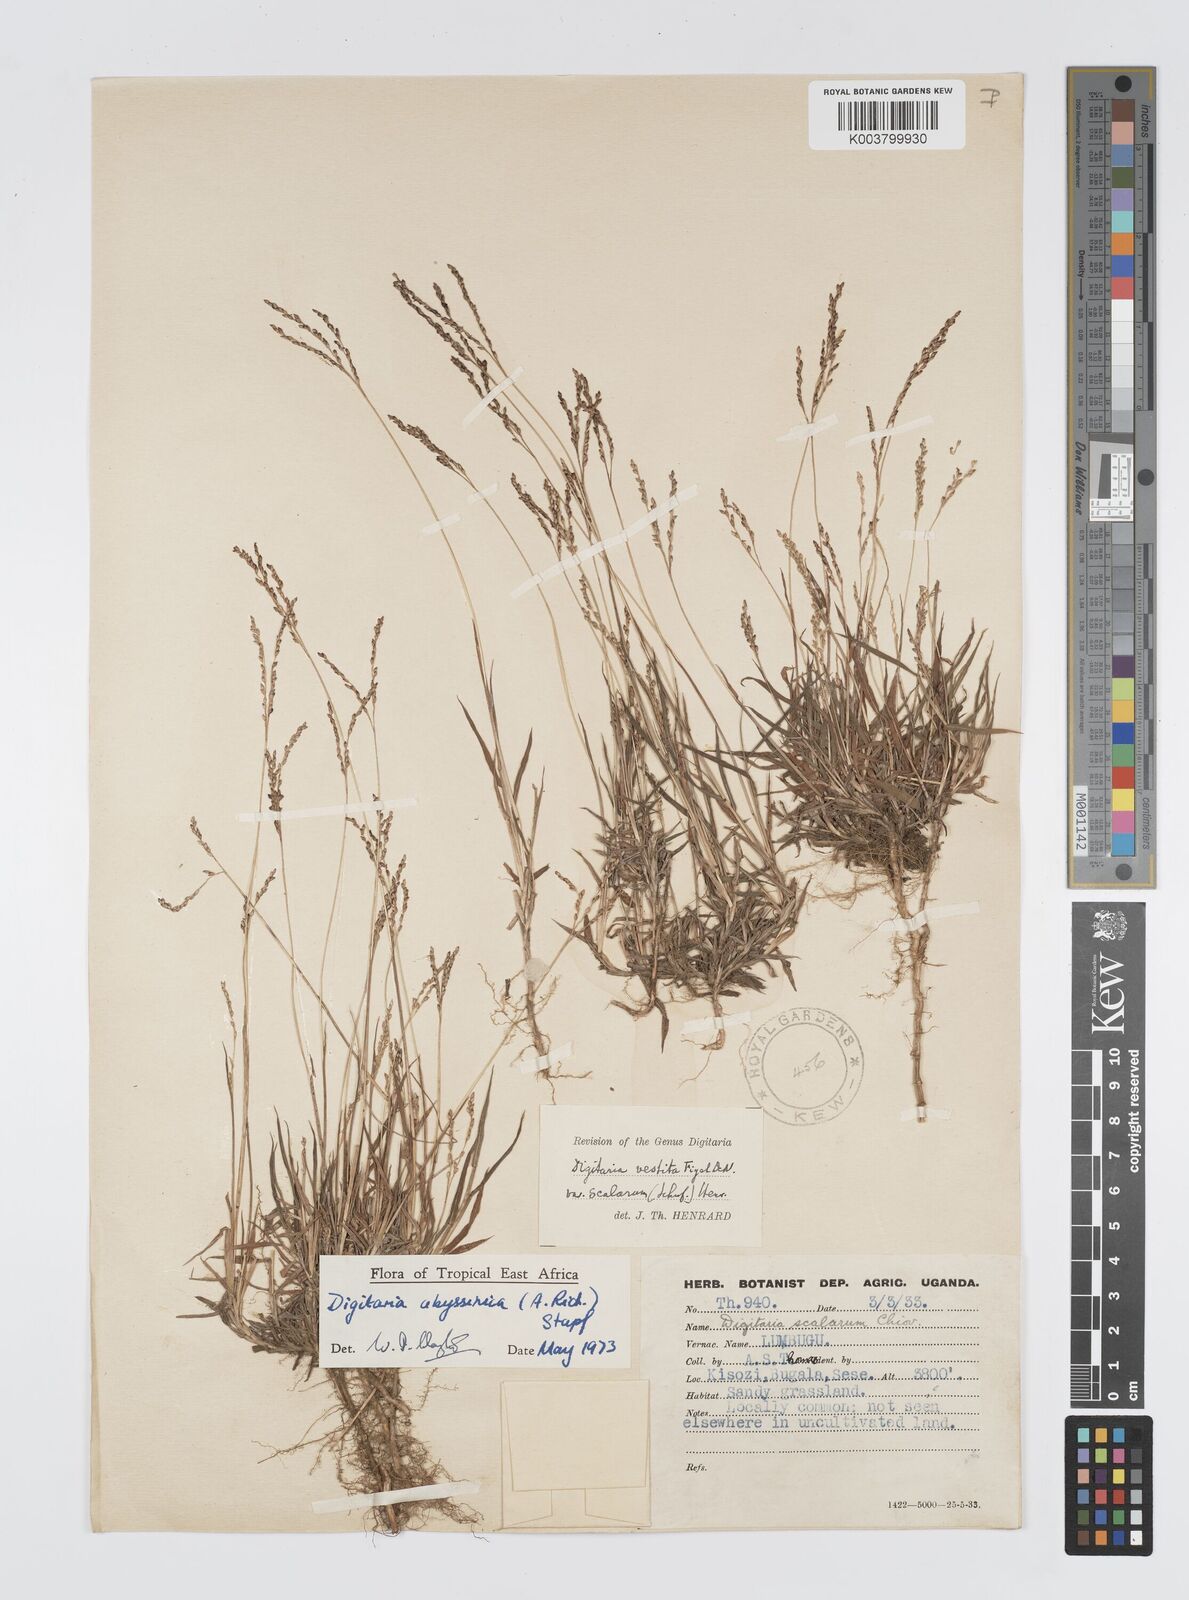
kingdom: Plantae
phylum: Tracheophyta
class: Liliopsida
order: Poales
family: Poaceae
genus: Digitaria
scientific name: Digitaria abyssinica
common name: African couchgrass
